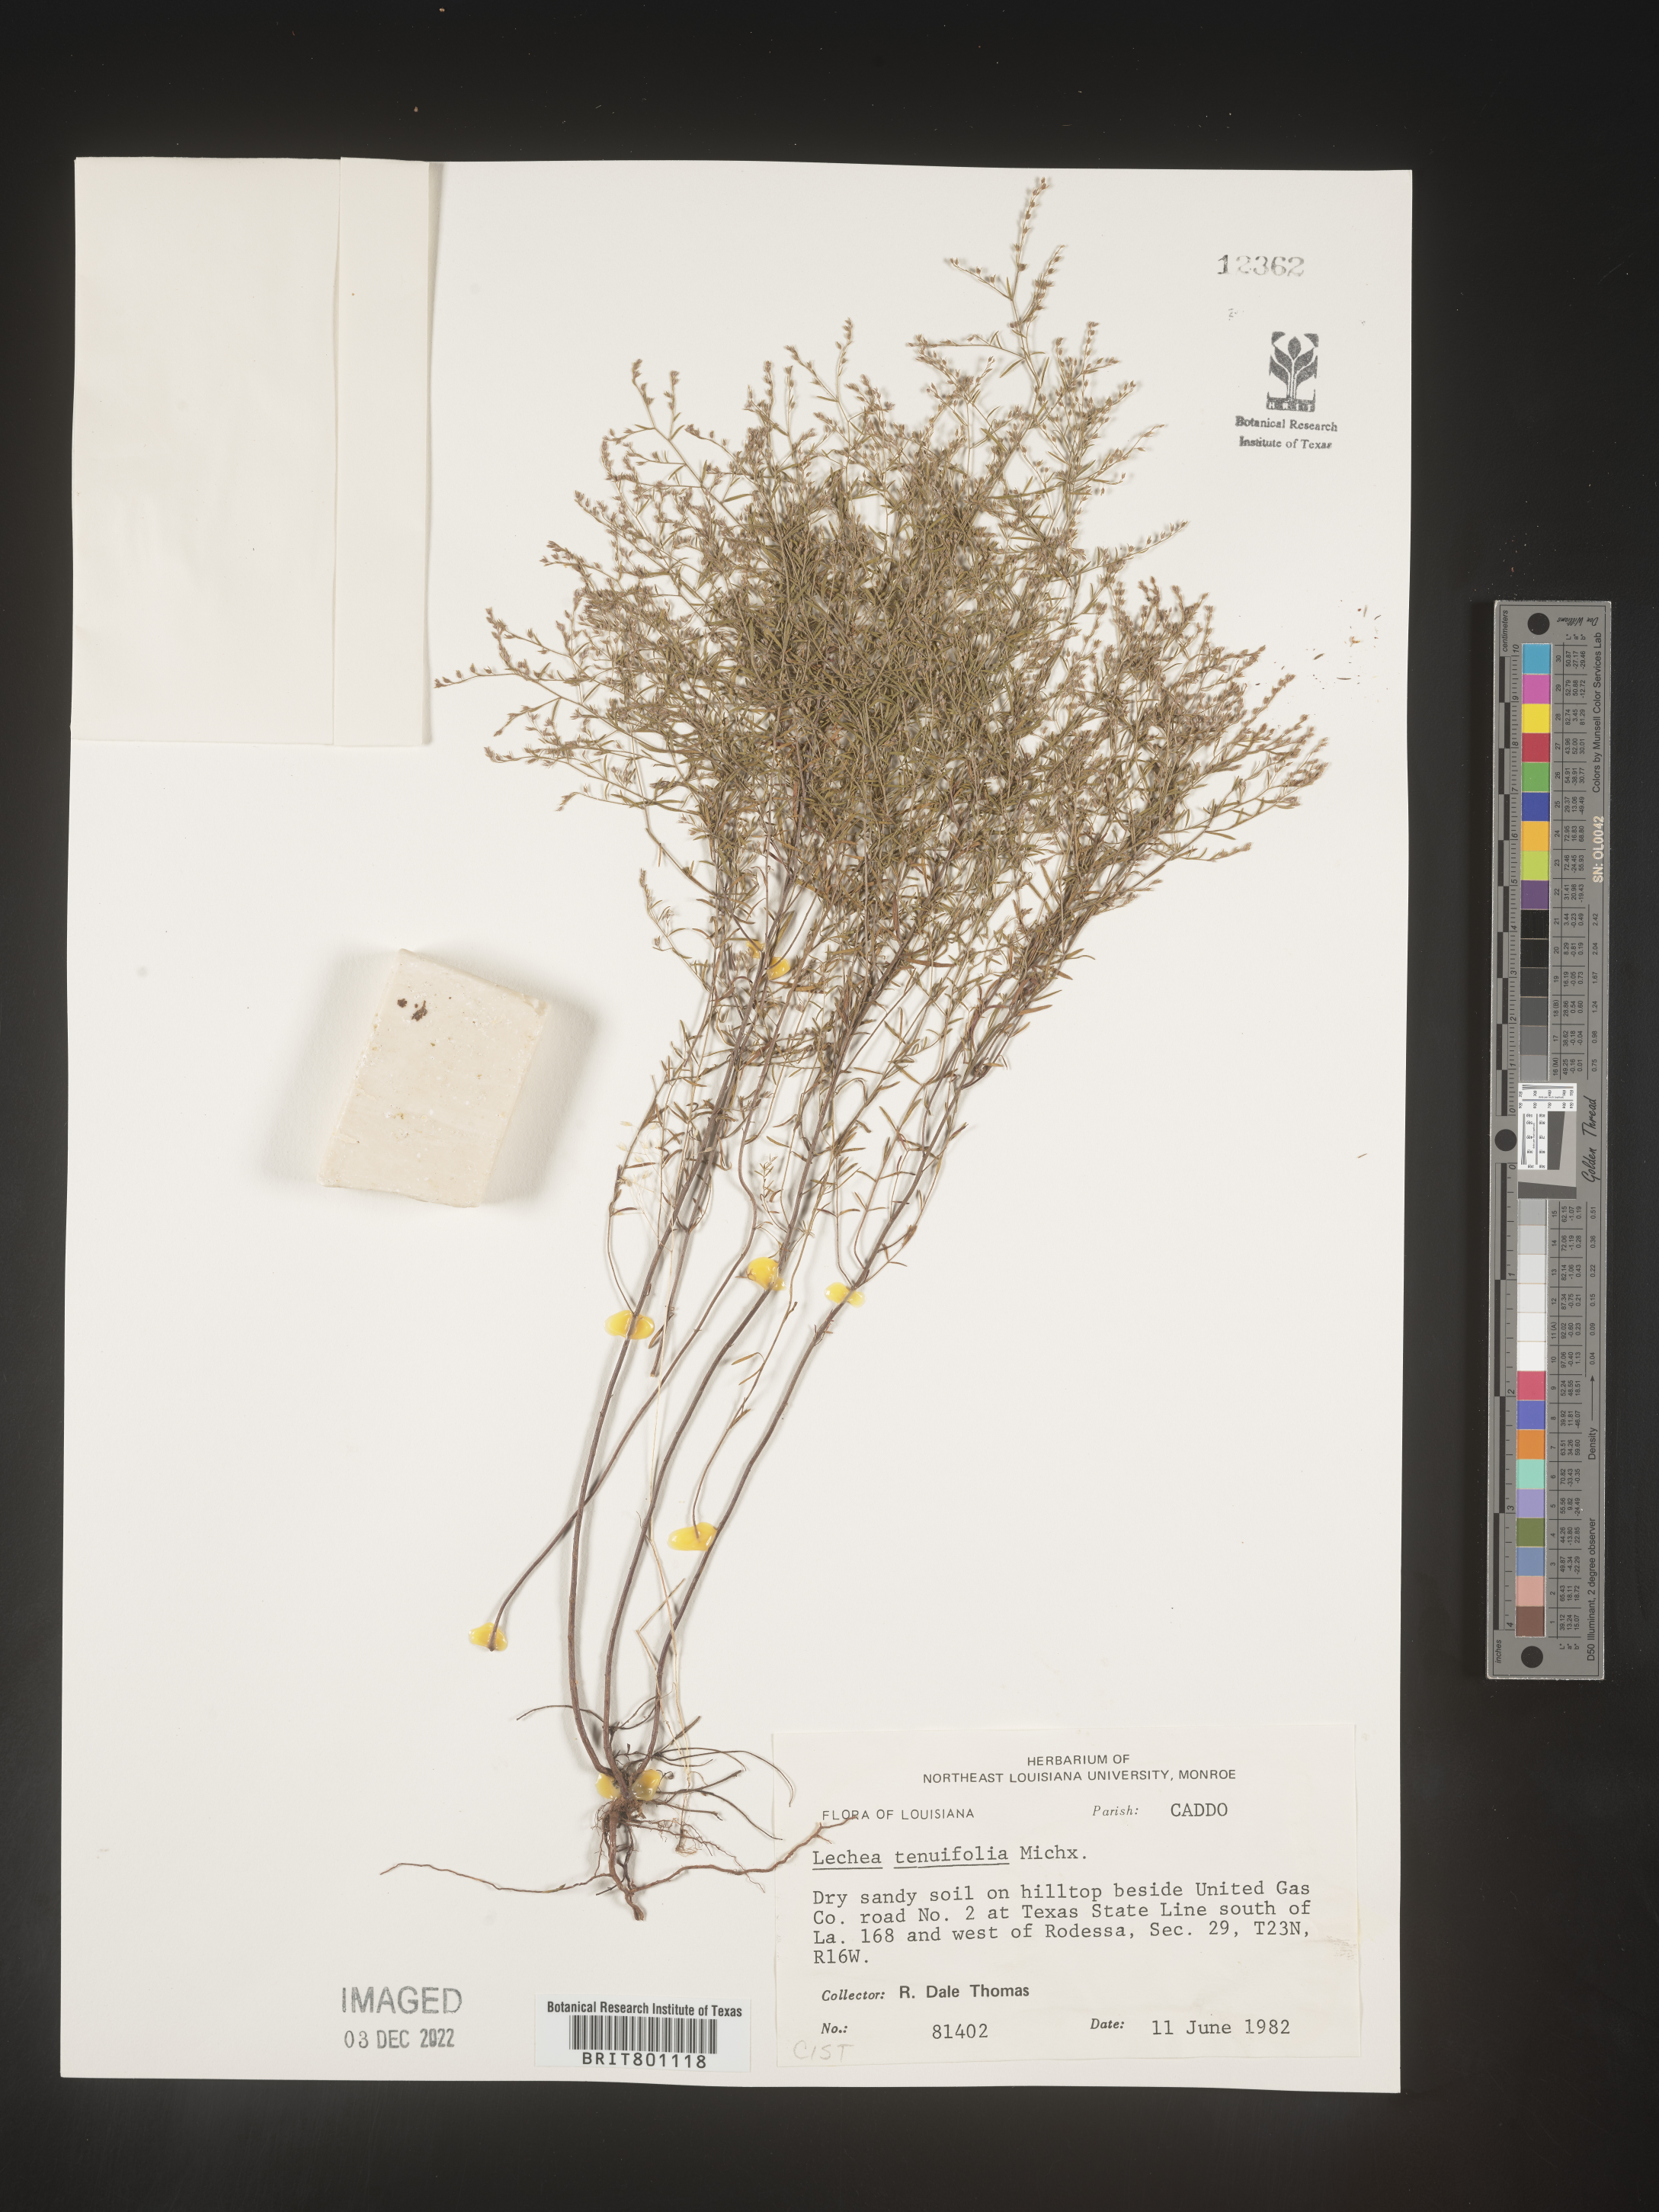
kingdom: Plantae
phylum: Tracheophyta
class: Magnoliopsida
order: Malvales
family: Cistaceae
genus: Lechea
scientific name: Lechea tenuifolia
